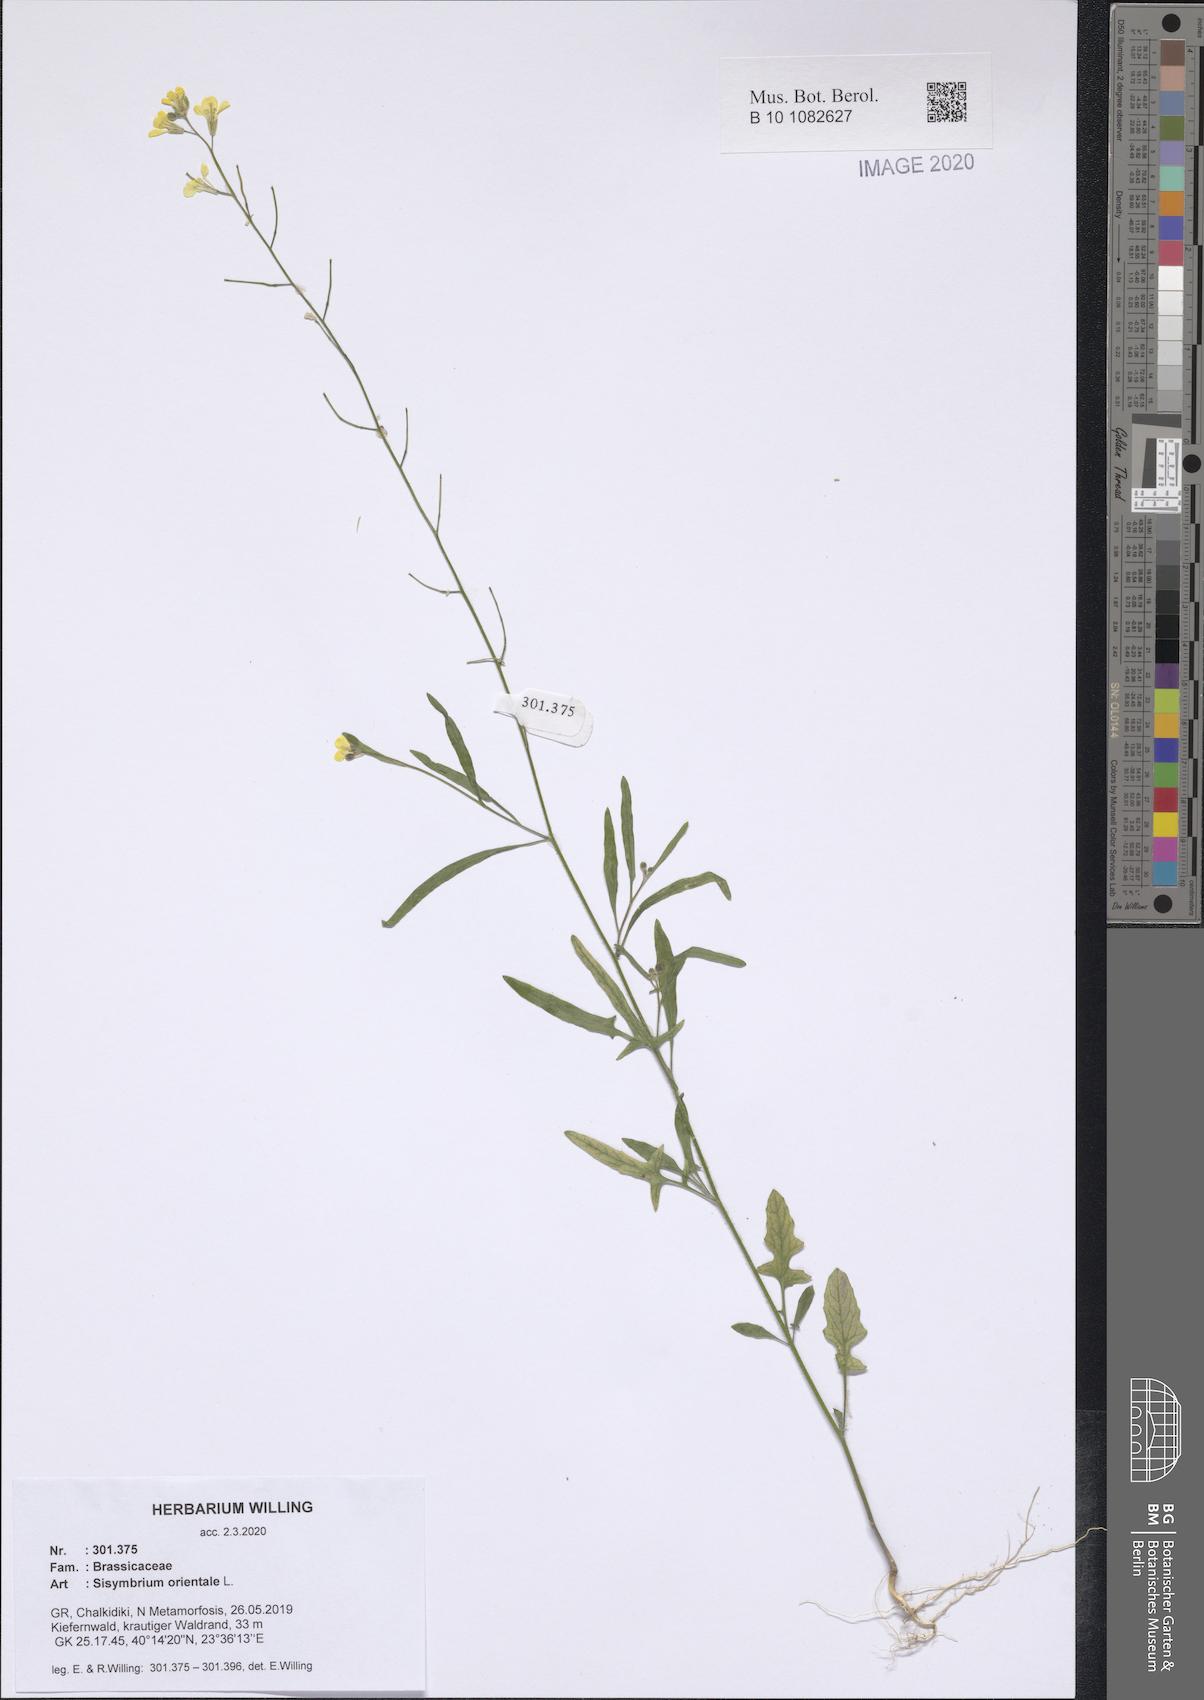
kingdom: Plantae
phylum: Tracheophyta
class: Magnoliopsida
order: Brassicales
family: Brassicaceae
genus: Sisymbrium
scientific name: Sisymbrium orientale
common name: Eastern rocket
